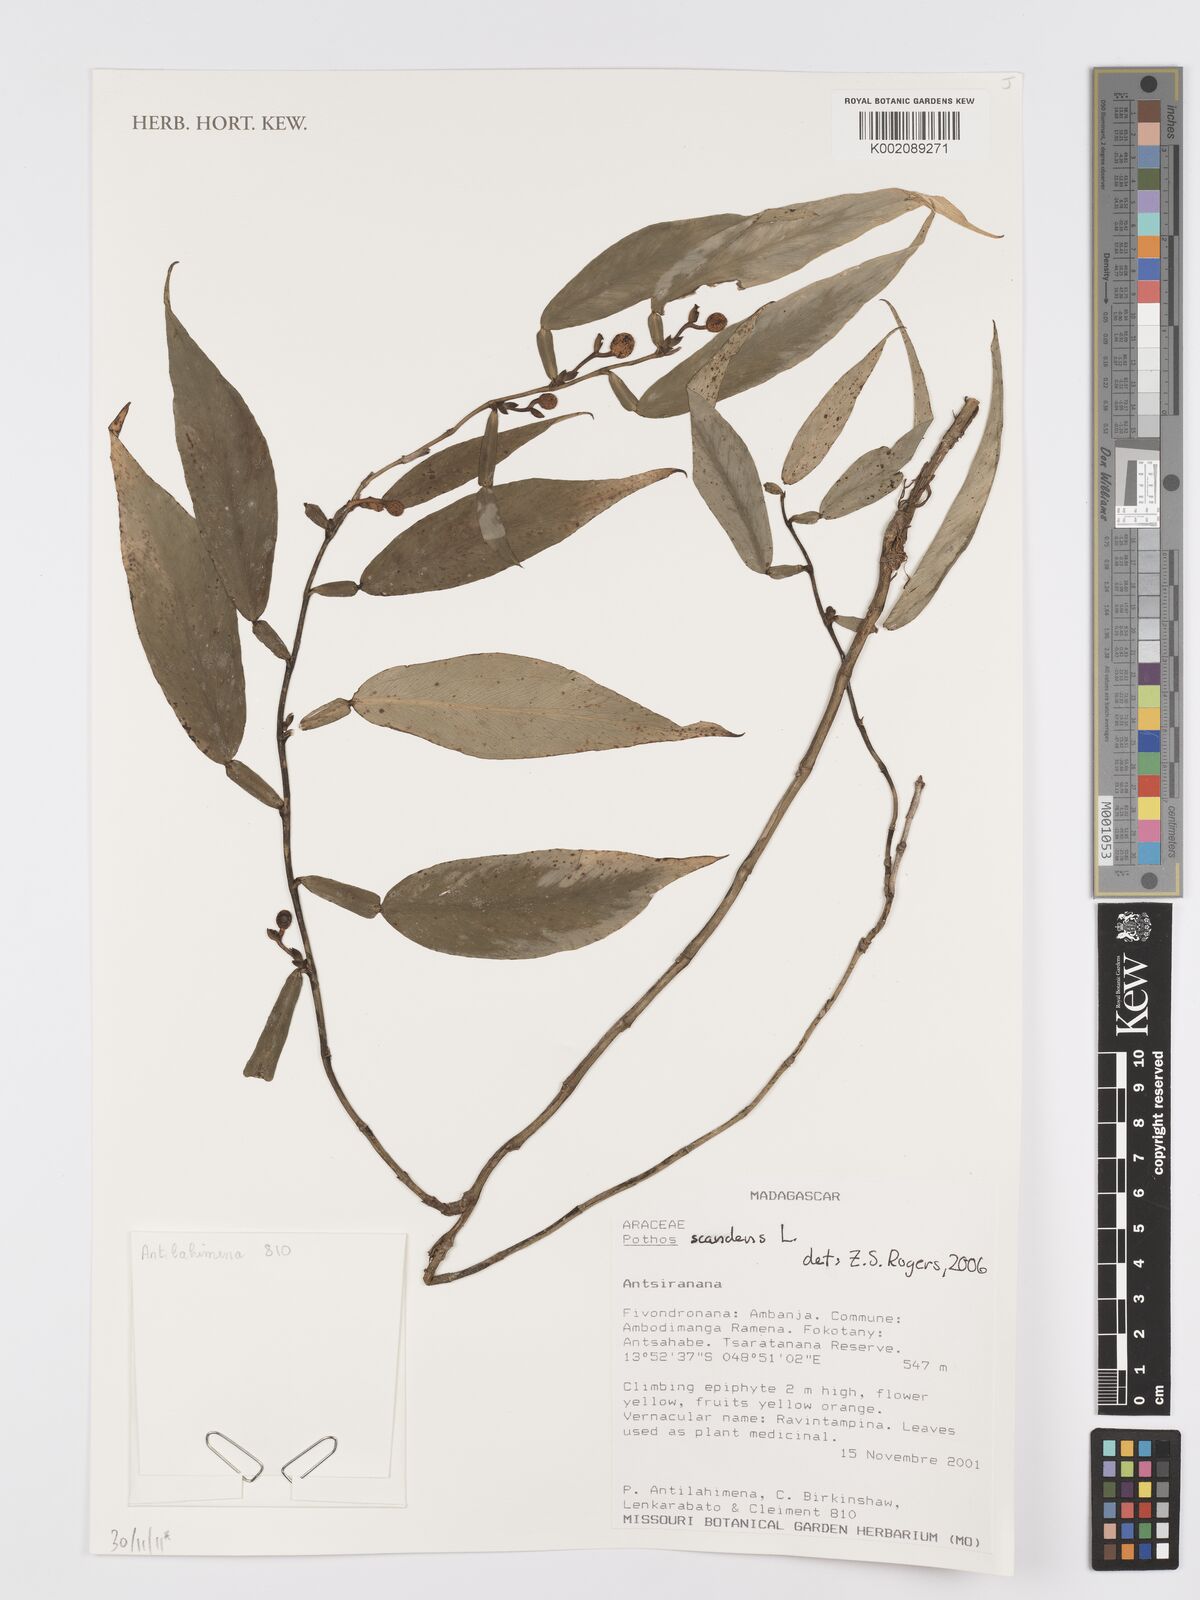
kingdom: Plantae
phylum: Tracheophyta
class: Liliopsida
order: Alismatales
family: Araceae
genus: Pothos
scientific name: Pothos scandens
